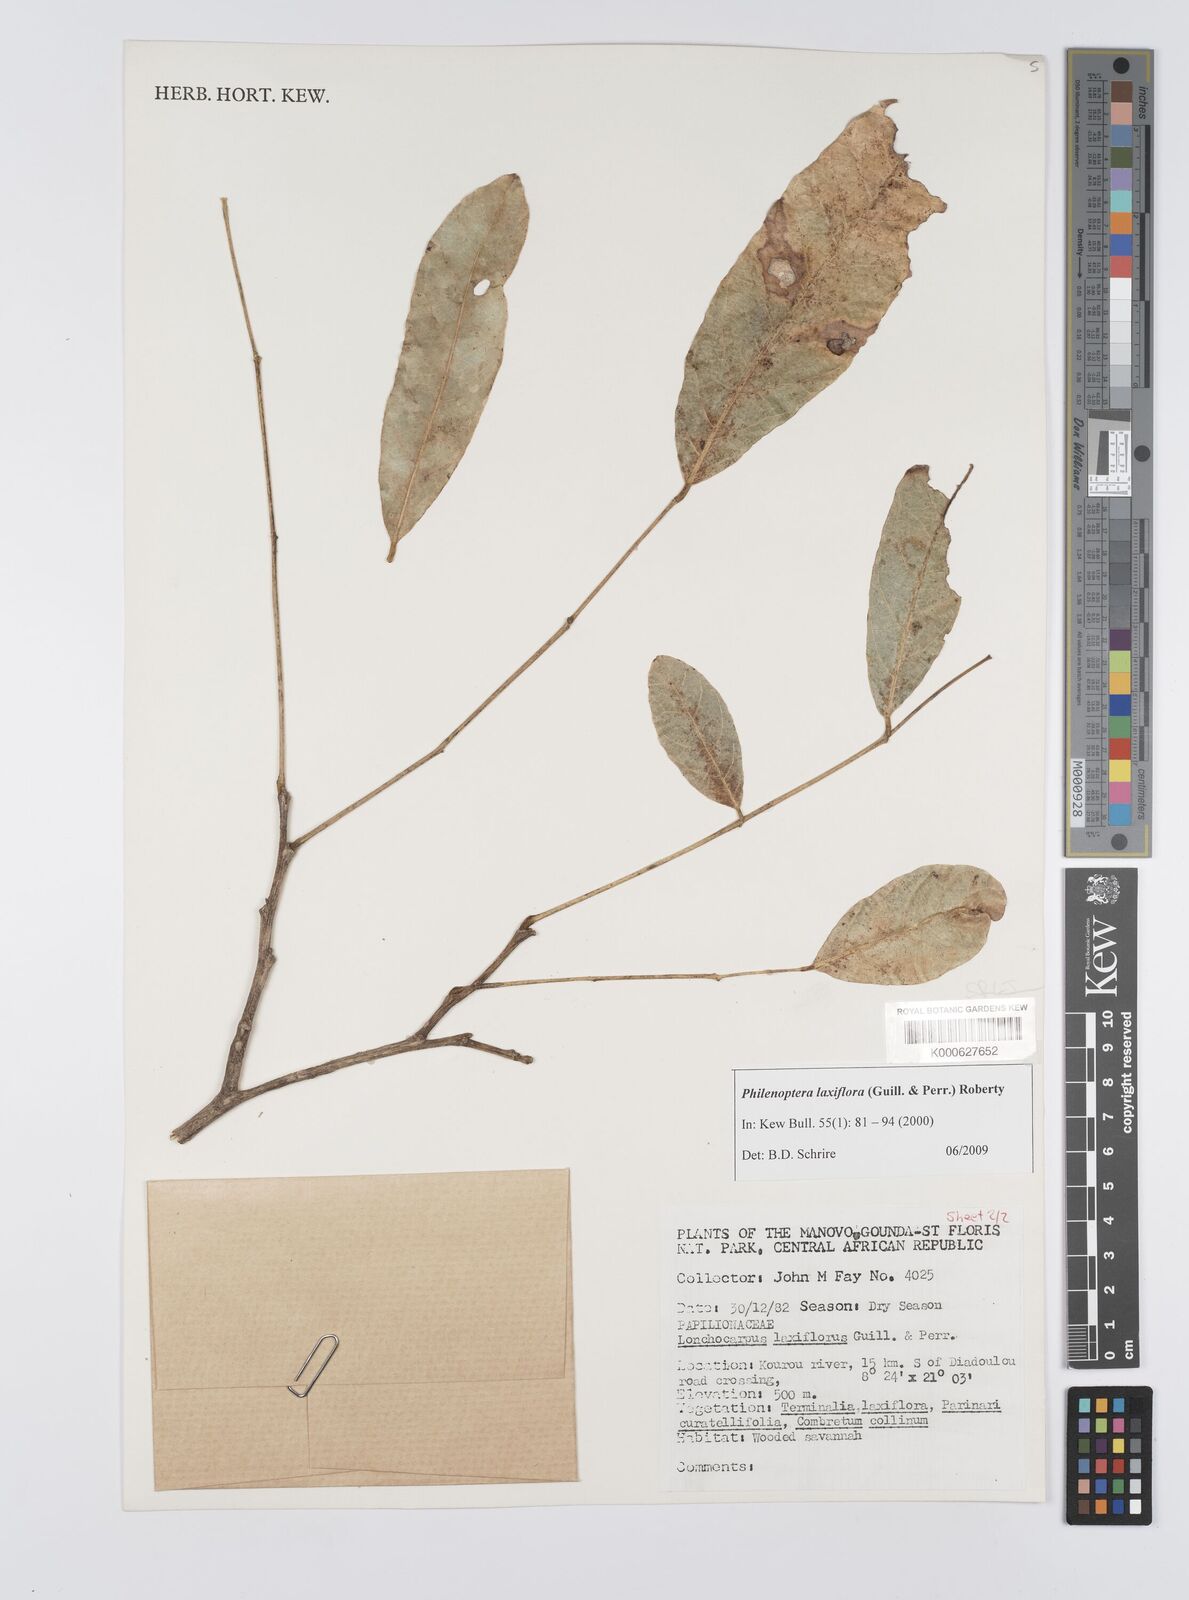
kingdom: Plantae
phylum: Tracheophyta
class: Magnoliopsida
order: Fabales
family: Fabaceae
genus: Philenoptera
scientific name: Philenoptera laxiflora
